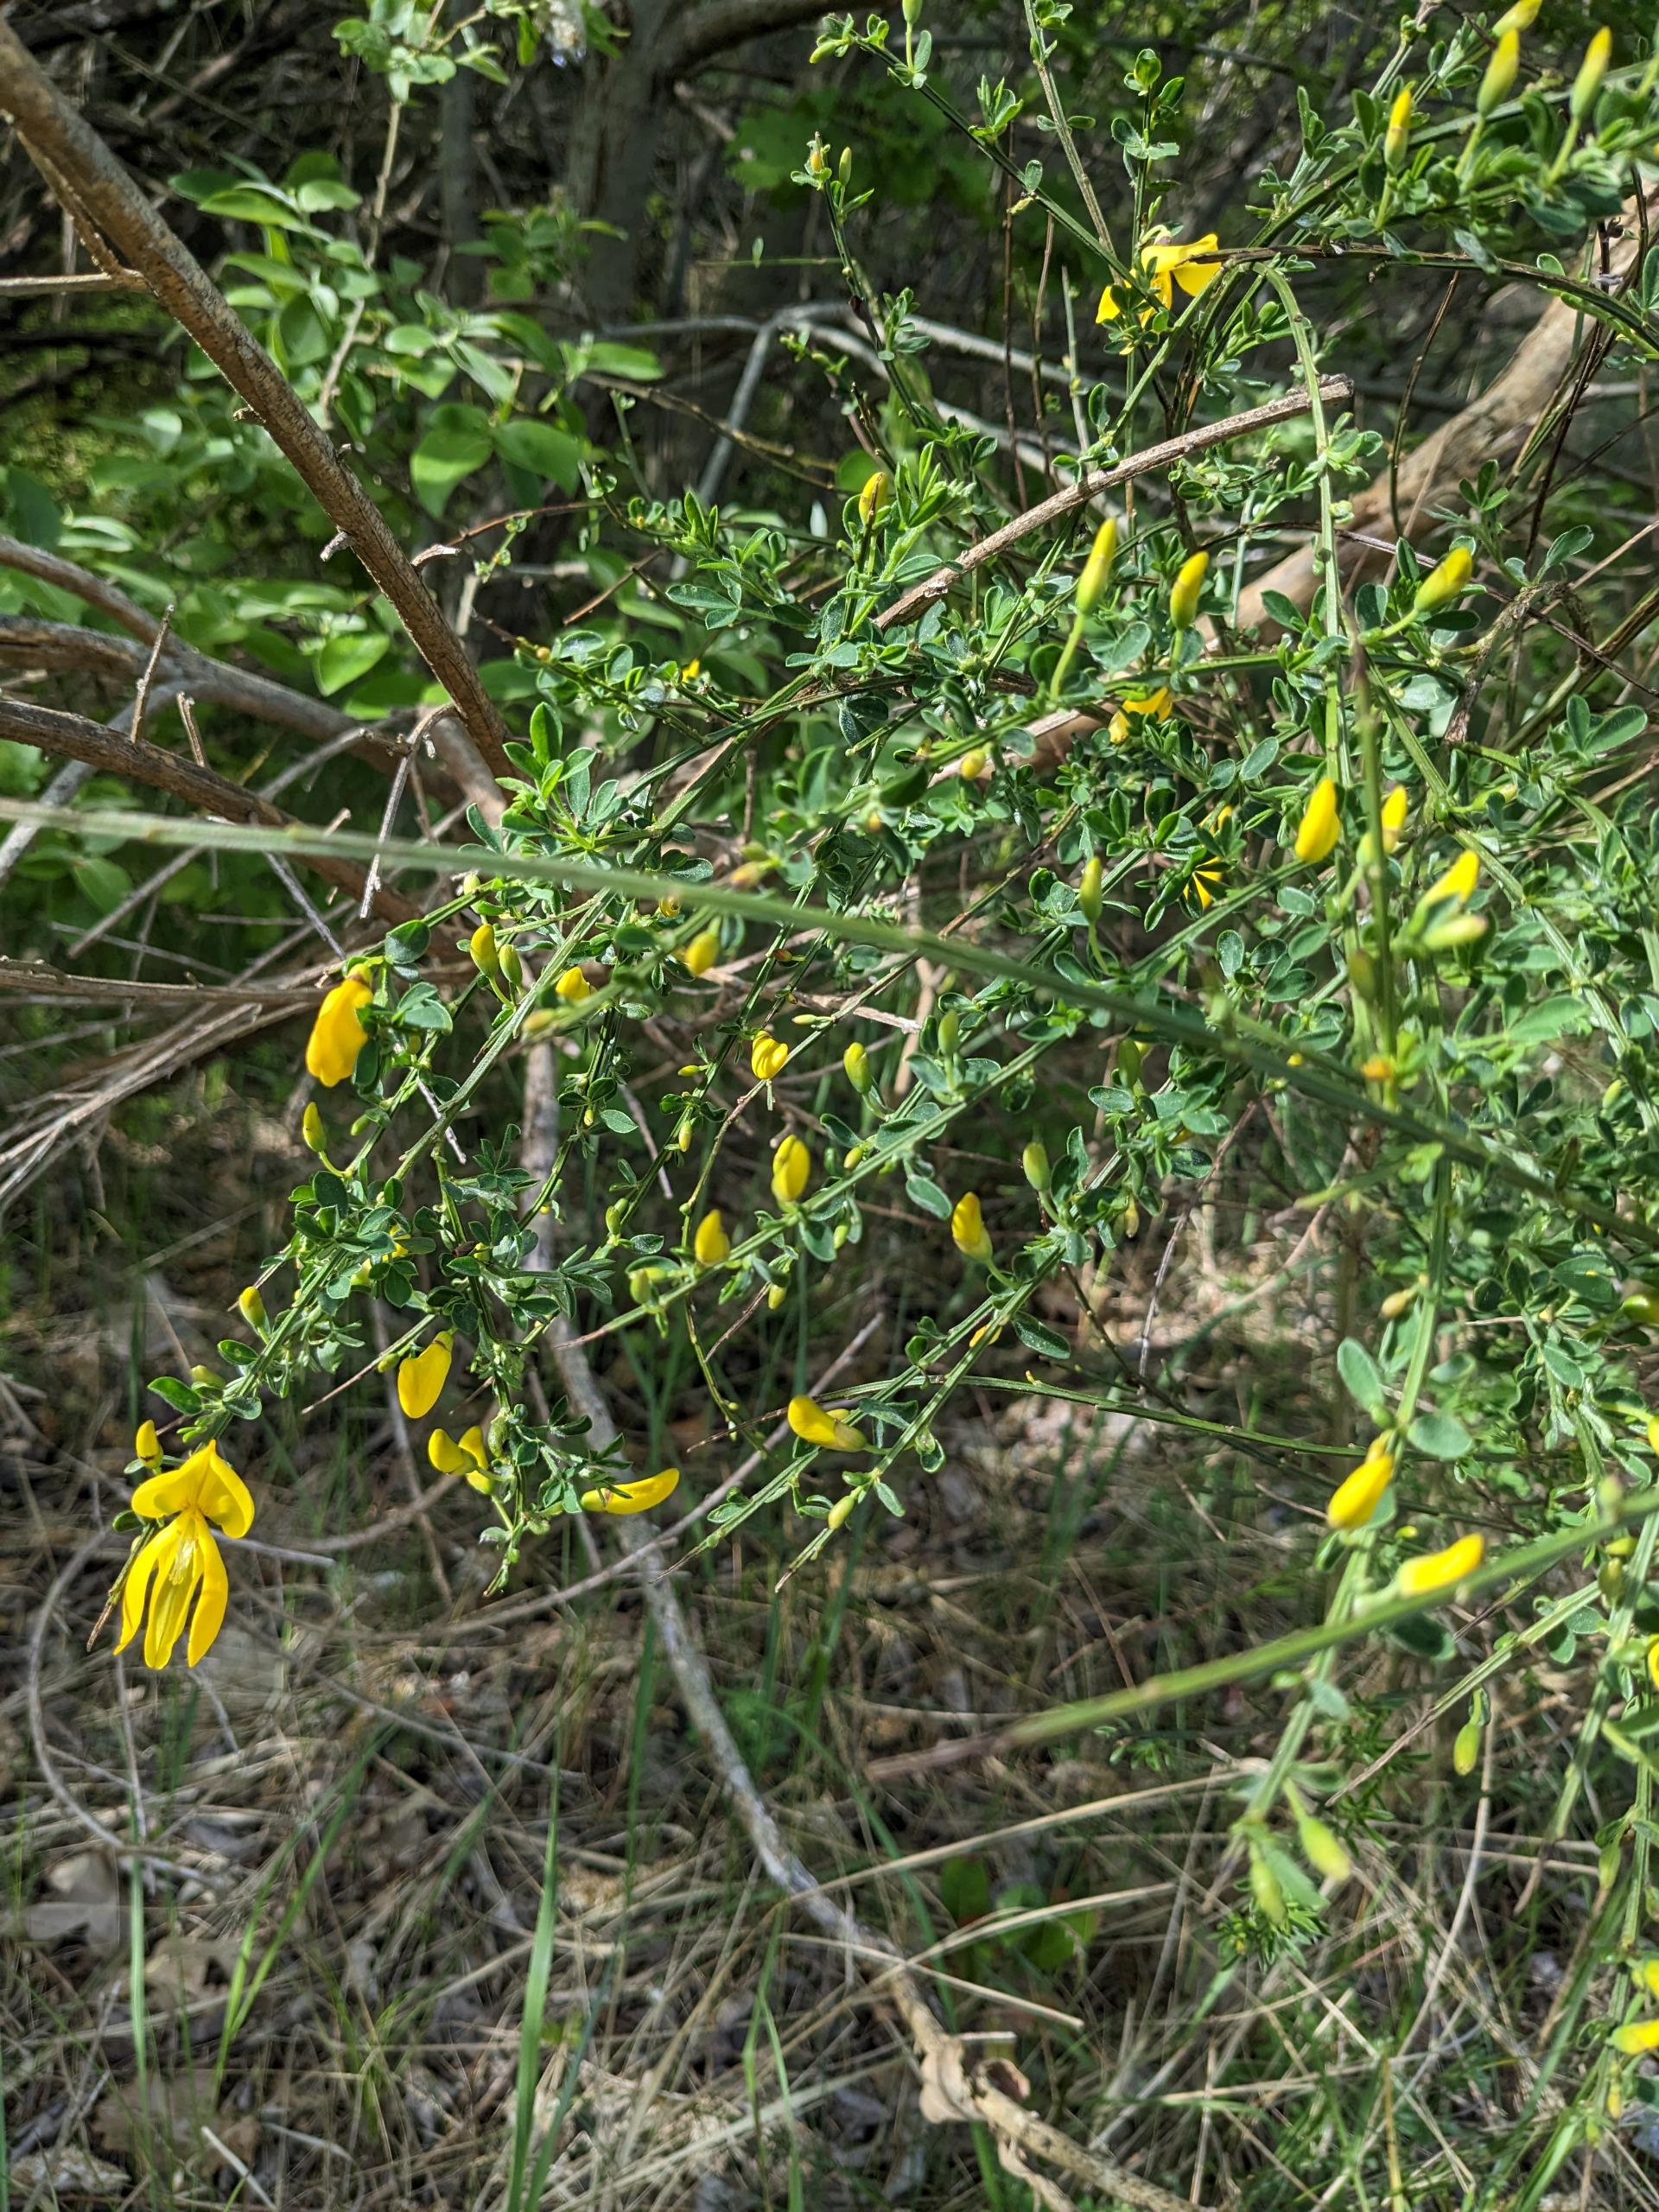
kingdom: Plantae
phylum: Tracheophyta
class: Magnoliopsida
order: Fabales
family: Fabaceae
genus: Cytisus
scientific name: Cytisus scoparius
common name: Almindelig gyvel
